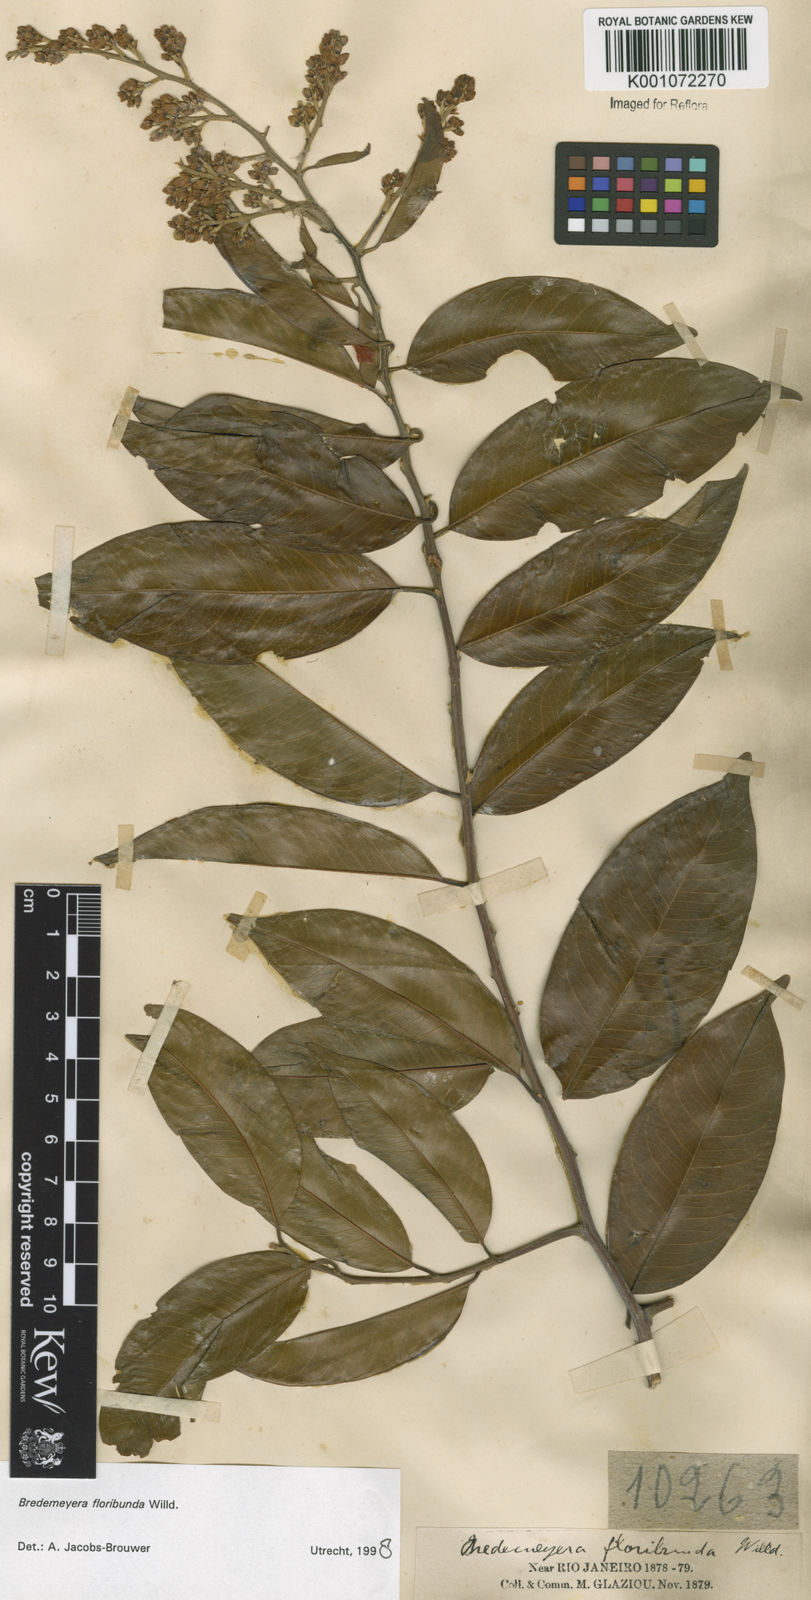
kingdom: Plantae
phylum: Tracheophyta
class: Magnoliopsida
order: Fabales
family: Polygalaceae
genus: Bredemeyera
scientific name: Bredemeyera floribunda
